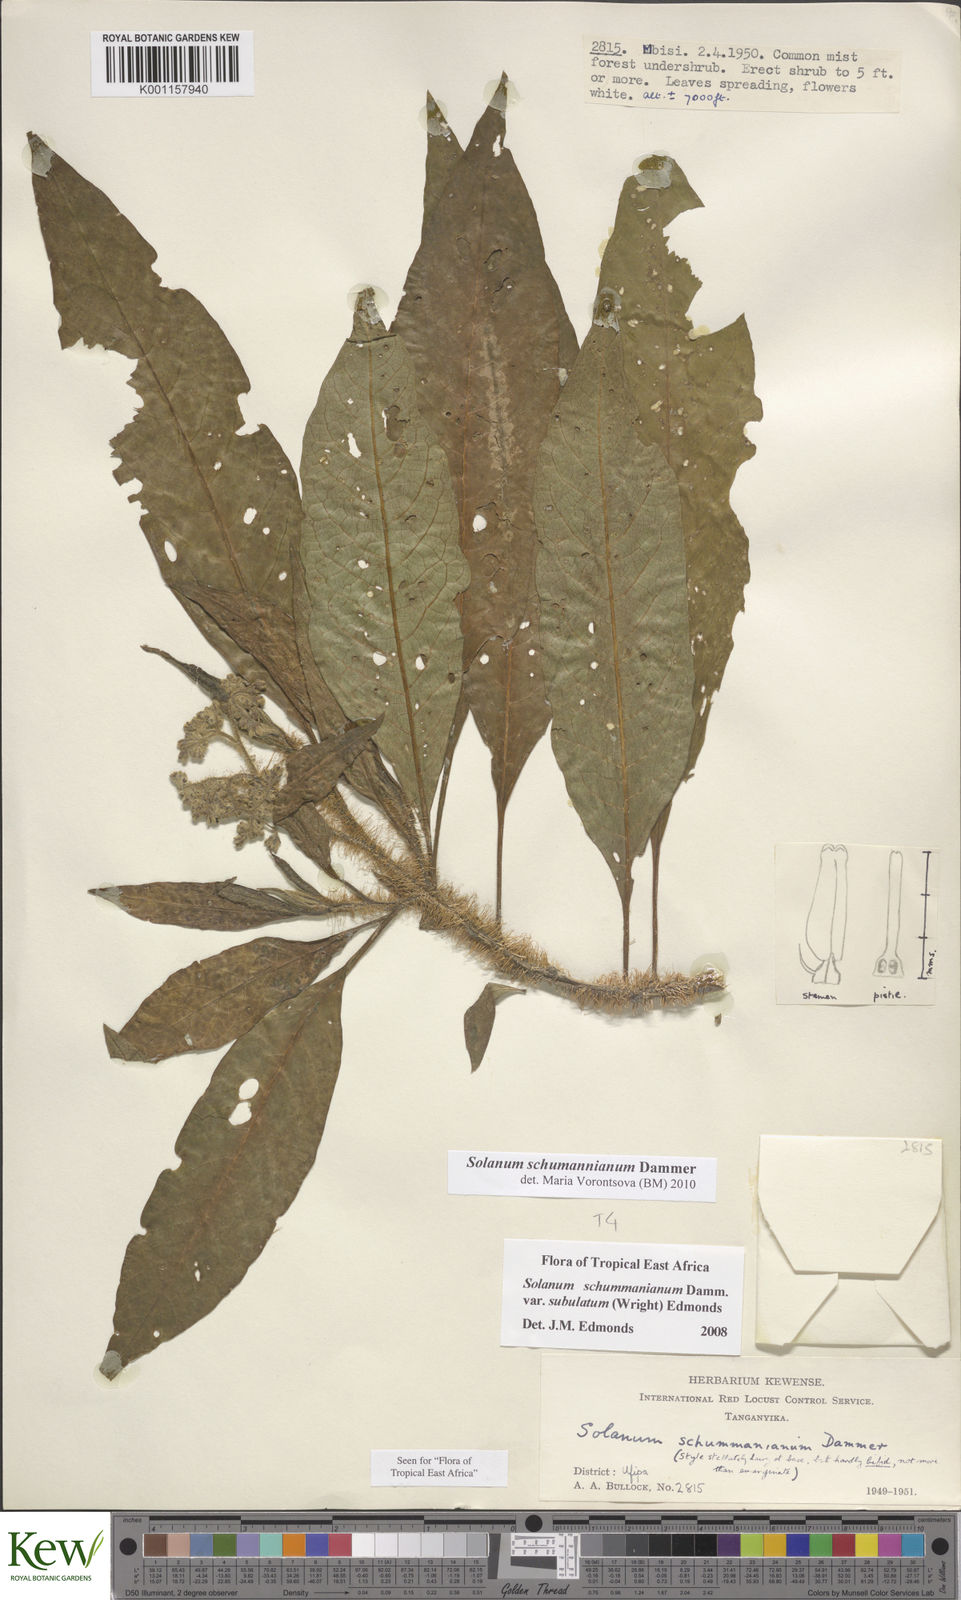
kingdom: Plantae
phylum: Tracheophyta
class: Magnoliopsida
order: Solanales
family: Solanaceae
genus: Solanum
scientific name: Solanum schumannianum
